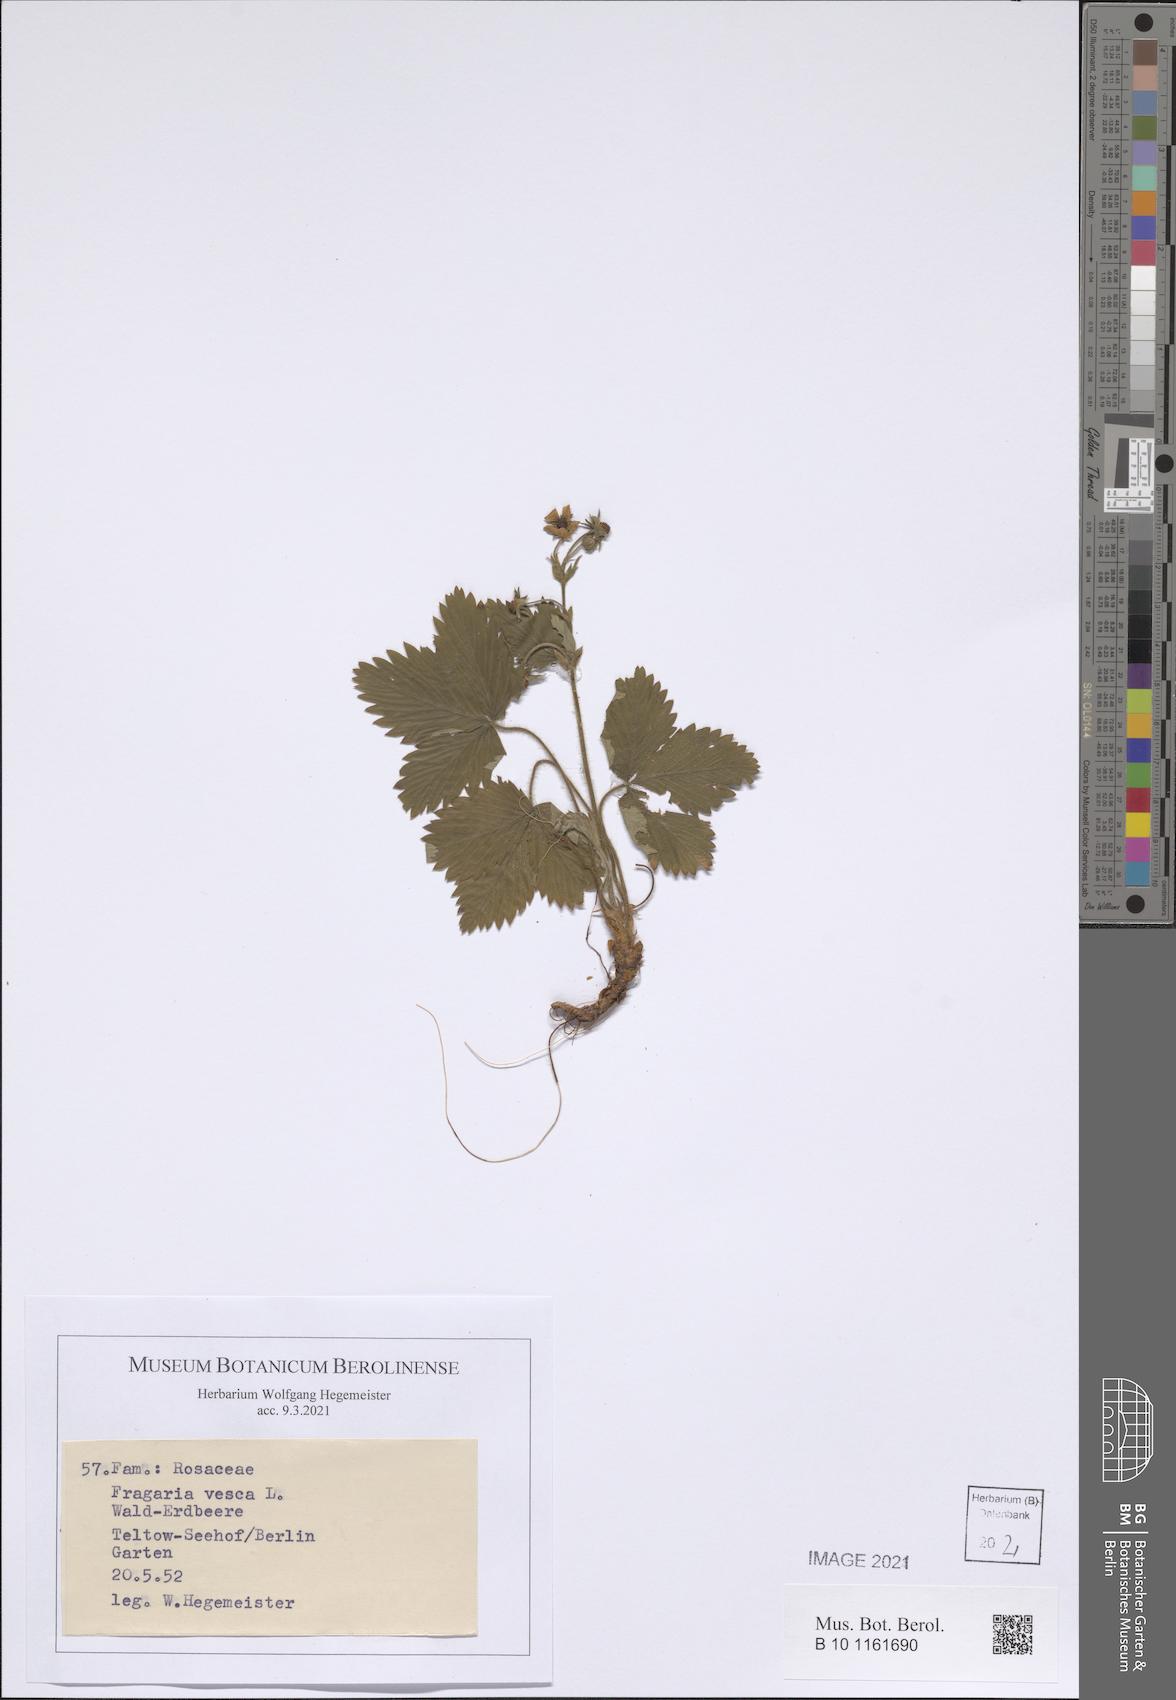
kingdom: Plantae
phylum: Tracheophyta
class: Magnoliopsida
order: Rosales
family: Rosaceae
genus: Fragaria
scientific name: Fragaria vesca
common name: Wild strawberry
